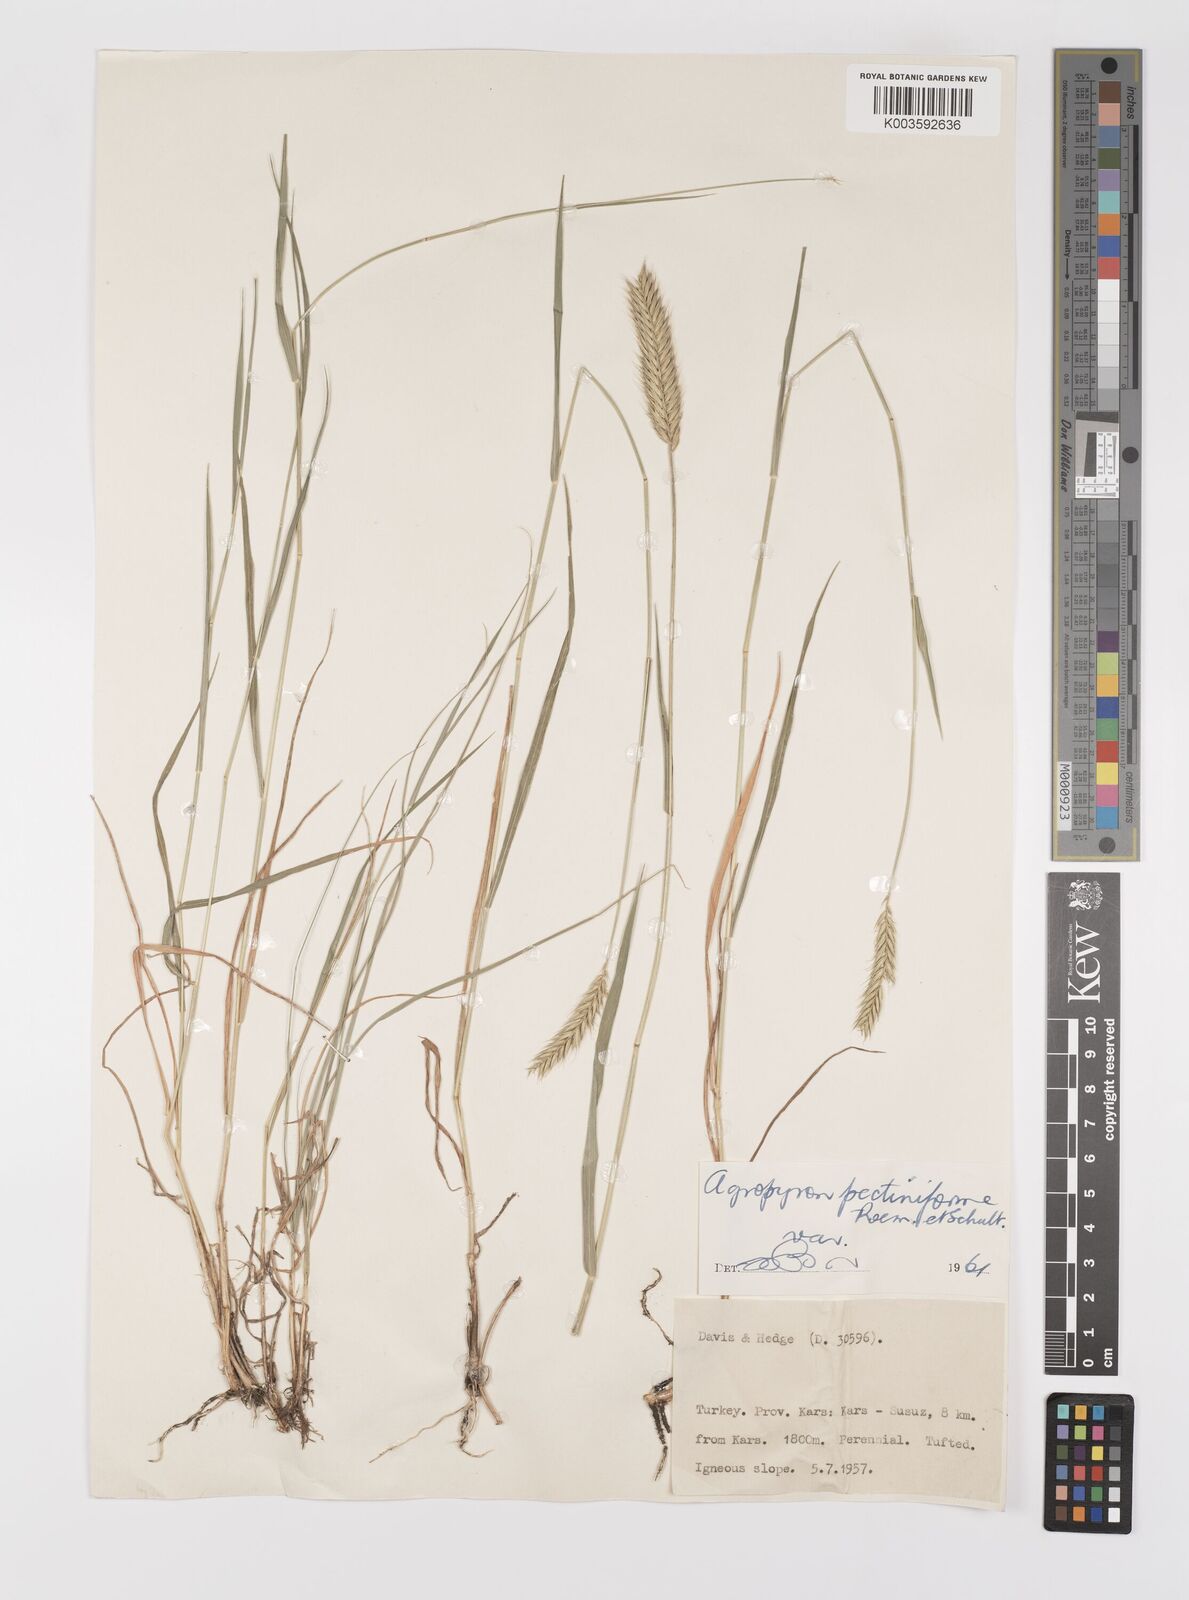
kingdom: Plantae
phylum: Tracheophyta
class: Liliopsida
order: Poales
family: Poaceae
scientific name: Poaceae
